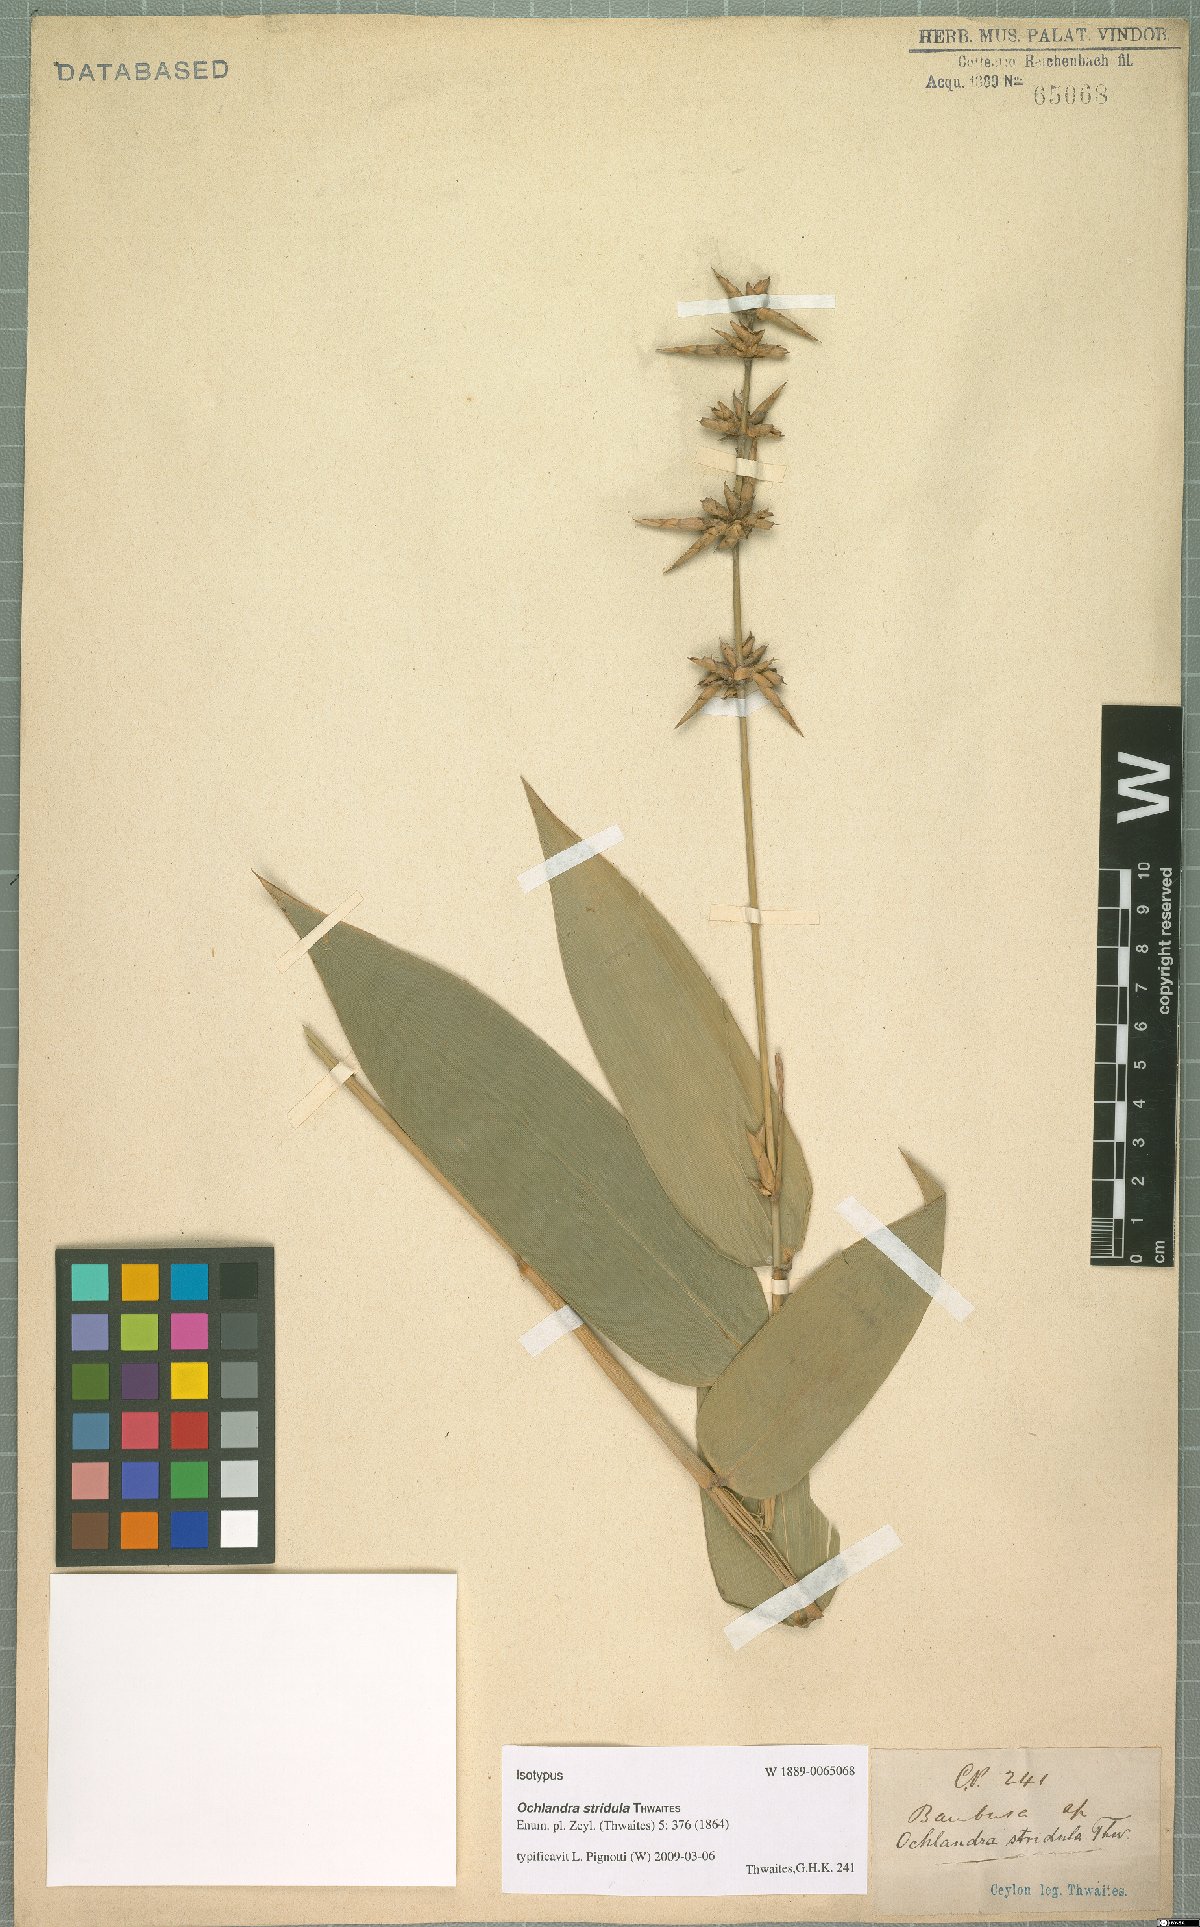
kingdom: Plantae
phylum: Tracheophyta
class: Liliopsida
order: Poales
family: Poaceae
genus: Ochlandra
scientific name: Ochlandra stridula
